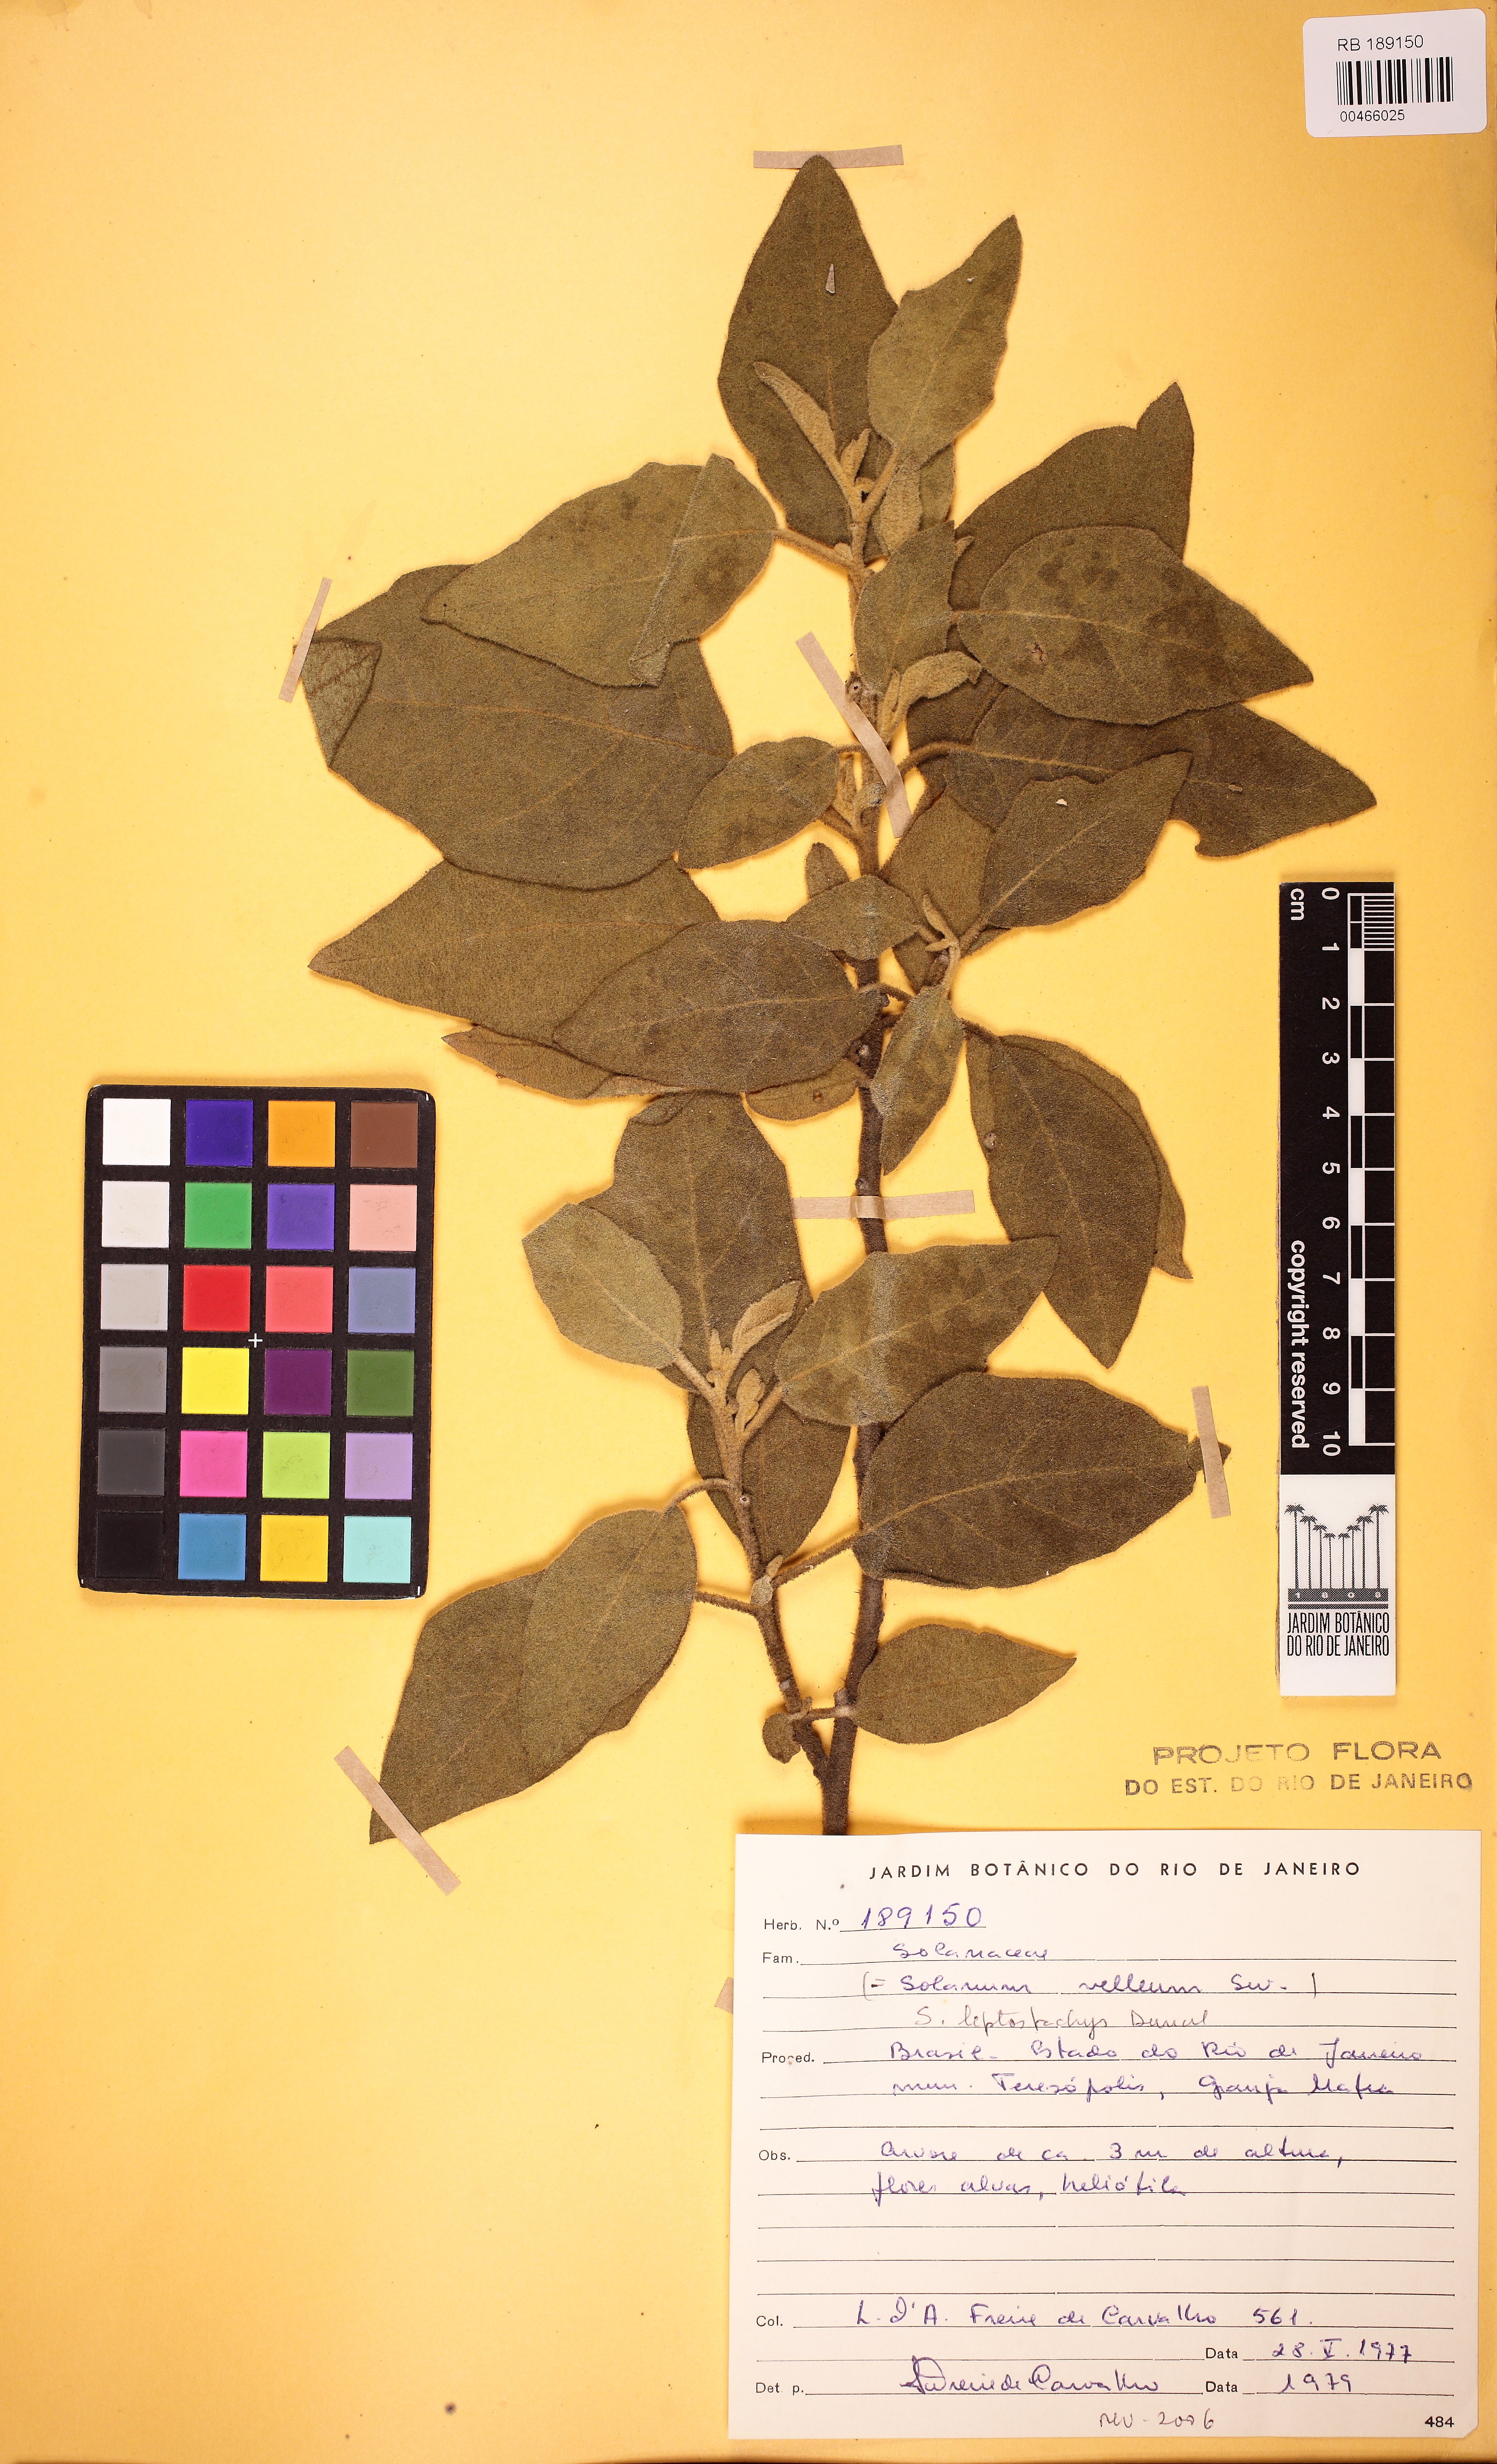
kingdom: Plantae
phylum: Tracheophyta
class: Magnoliopsida
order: Solanales
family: Solanaceae
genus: Solanum
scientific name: Solanum velleum
